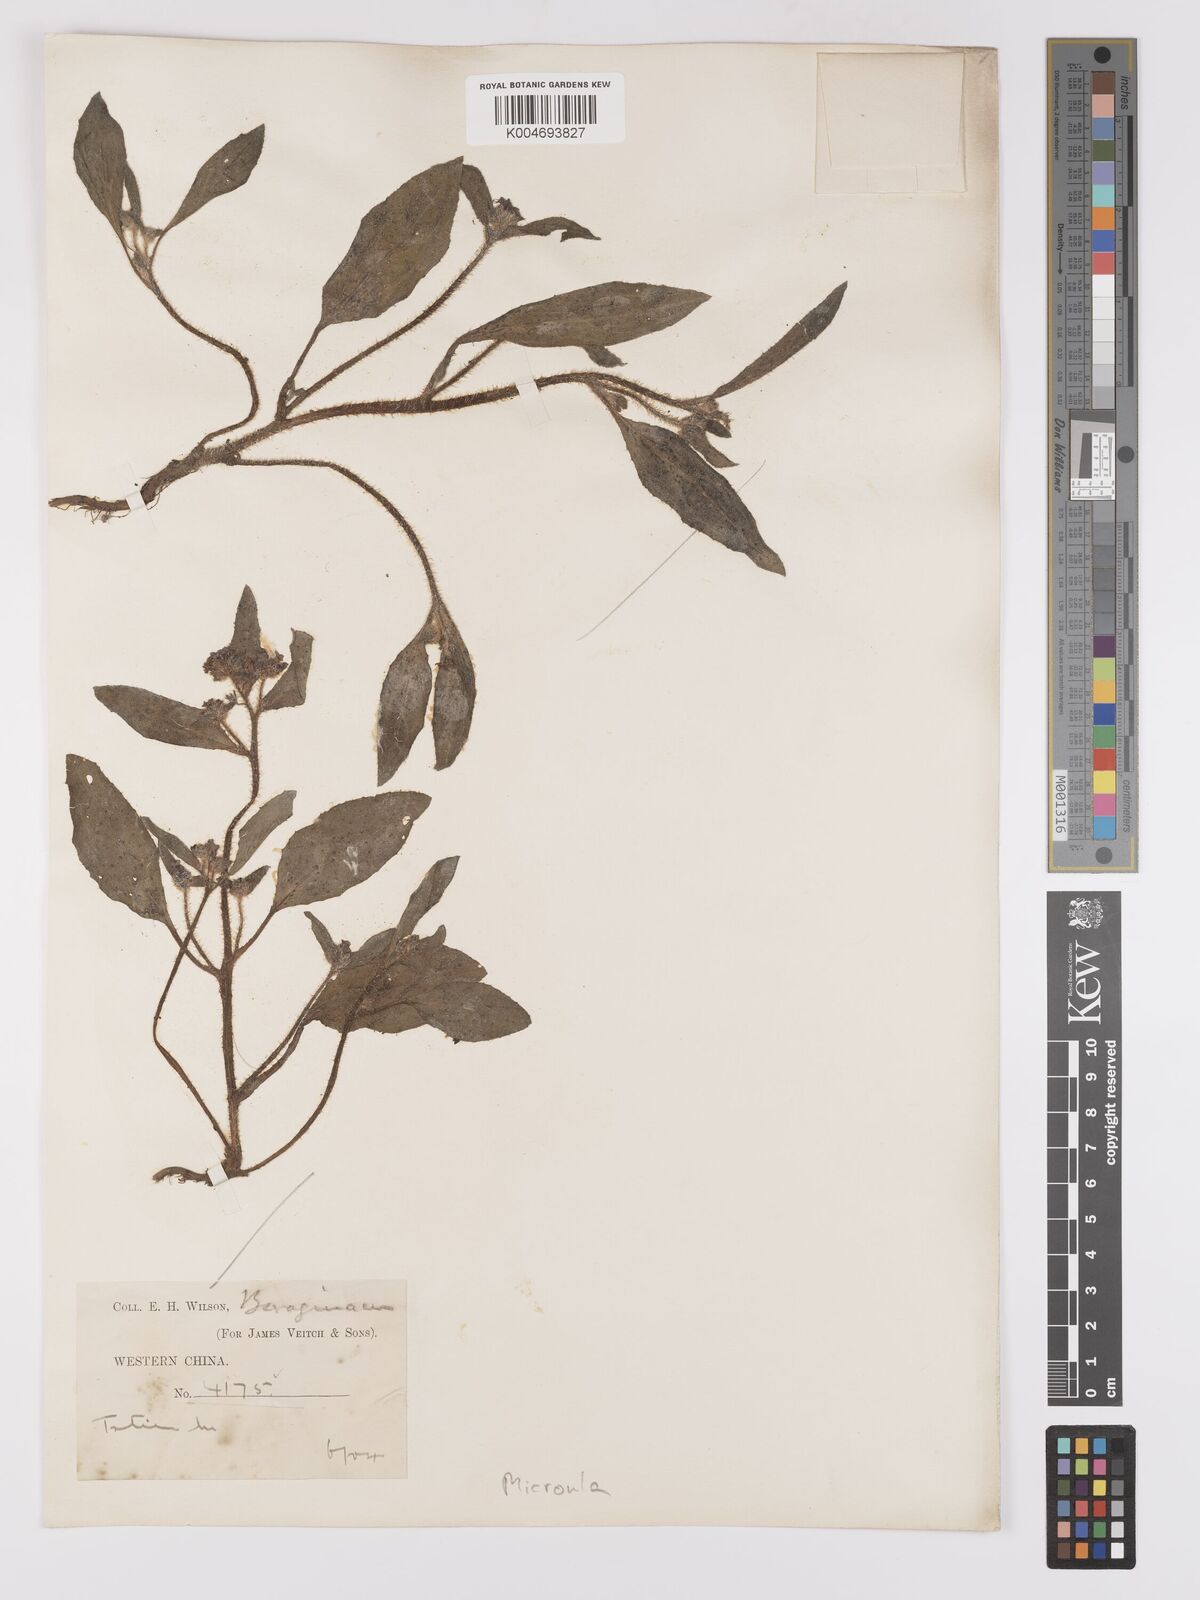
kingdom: Plantae
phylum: Tracheophyta
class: Magnoliopsida
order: Boraginales
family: Boraginaceae
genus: Asperugo
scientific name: Asperugo
